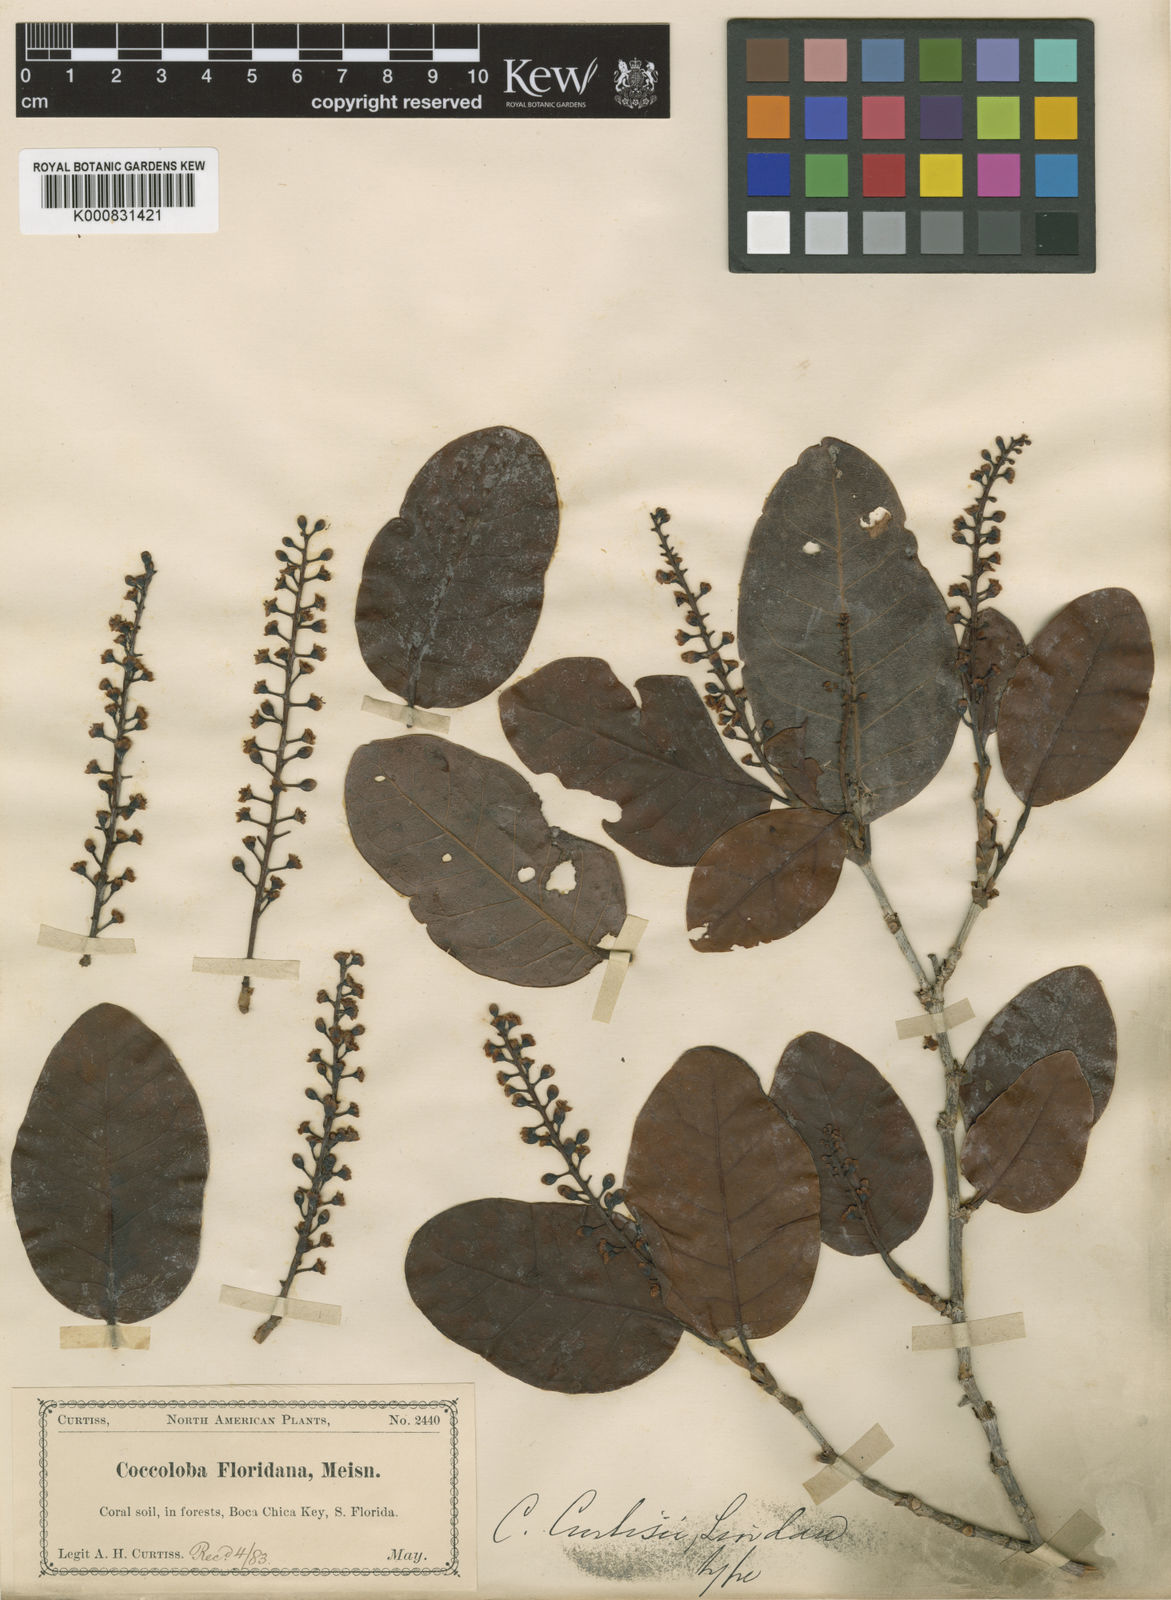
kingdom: Plantae
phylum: Tracheophyta
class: Magnoliopsida
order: Caryophyllales
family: Polygonaceae
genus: Coccoloba
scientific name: Coccoloba diversifolia
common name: Pigeon-plum
